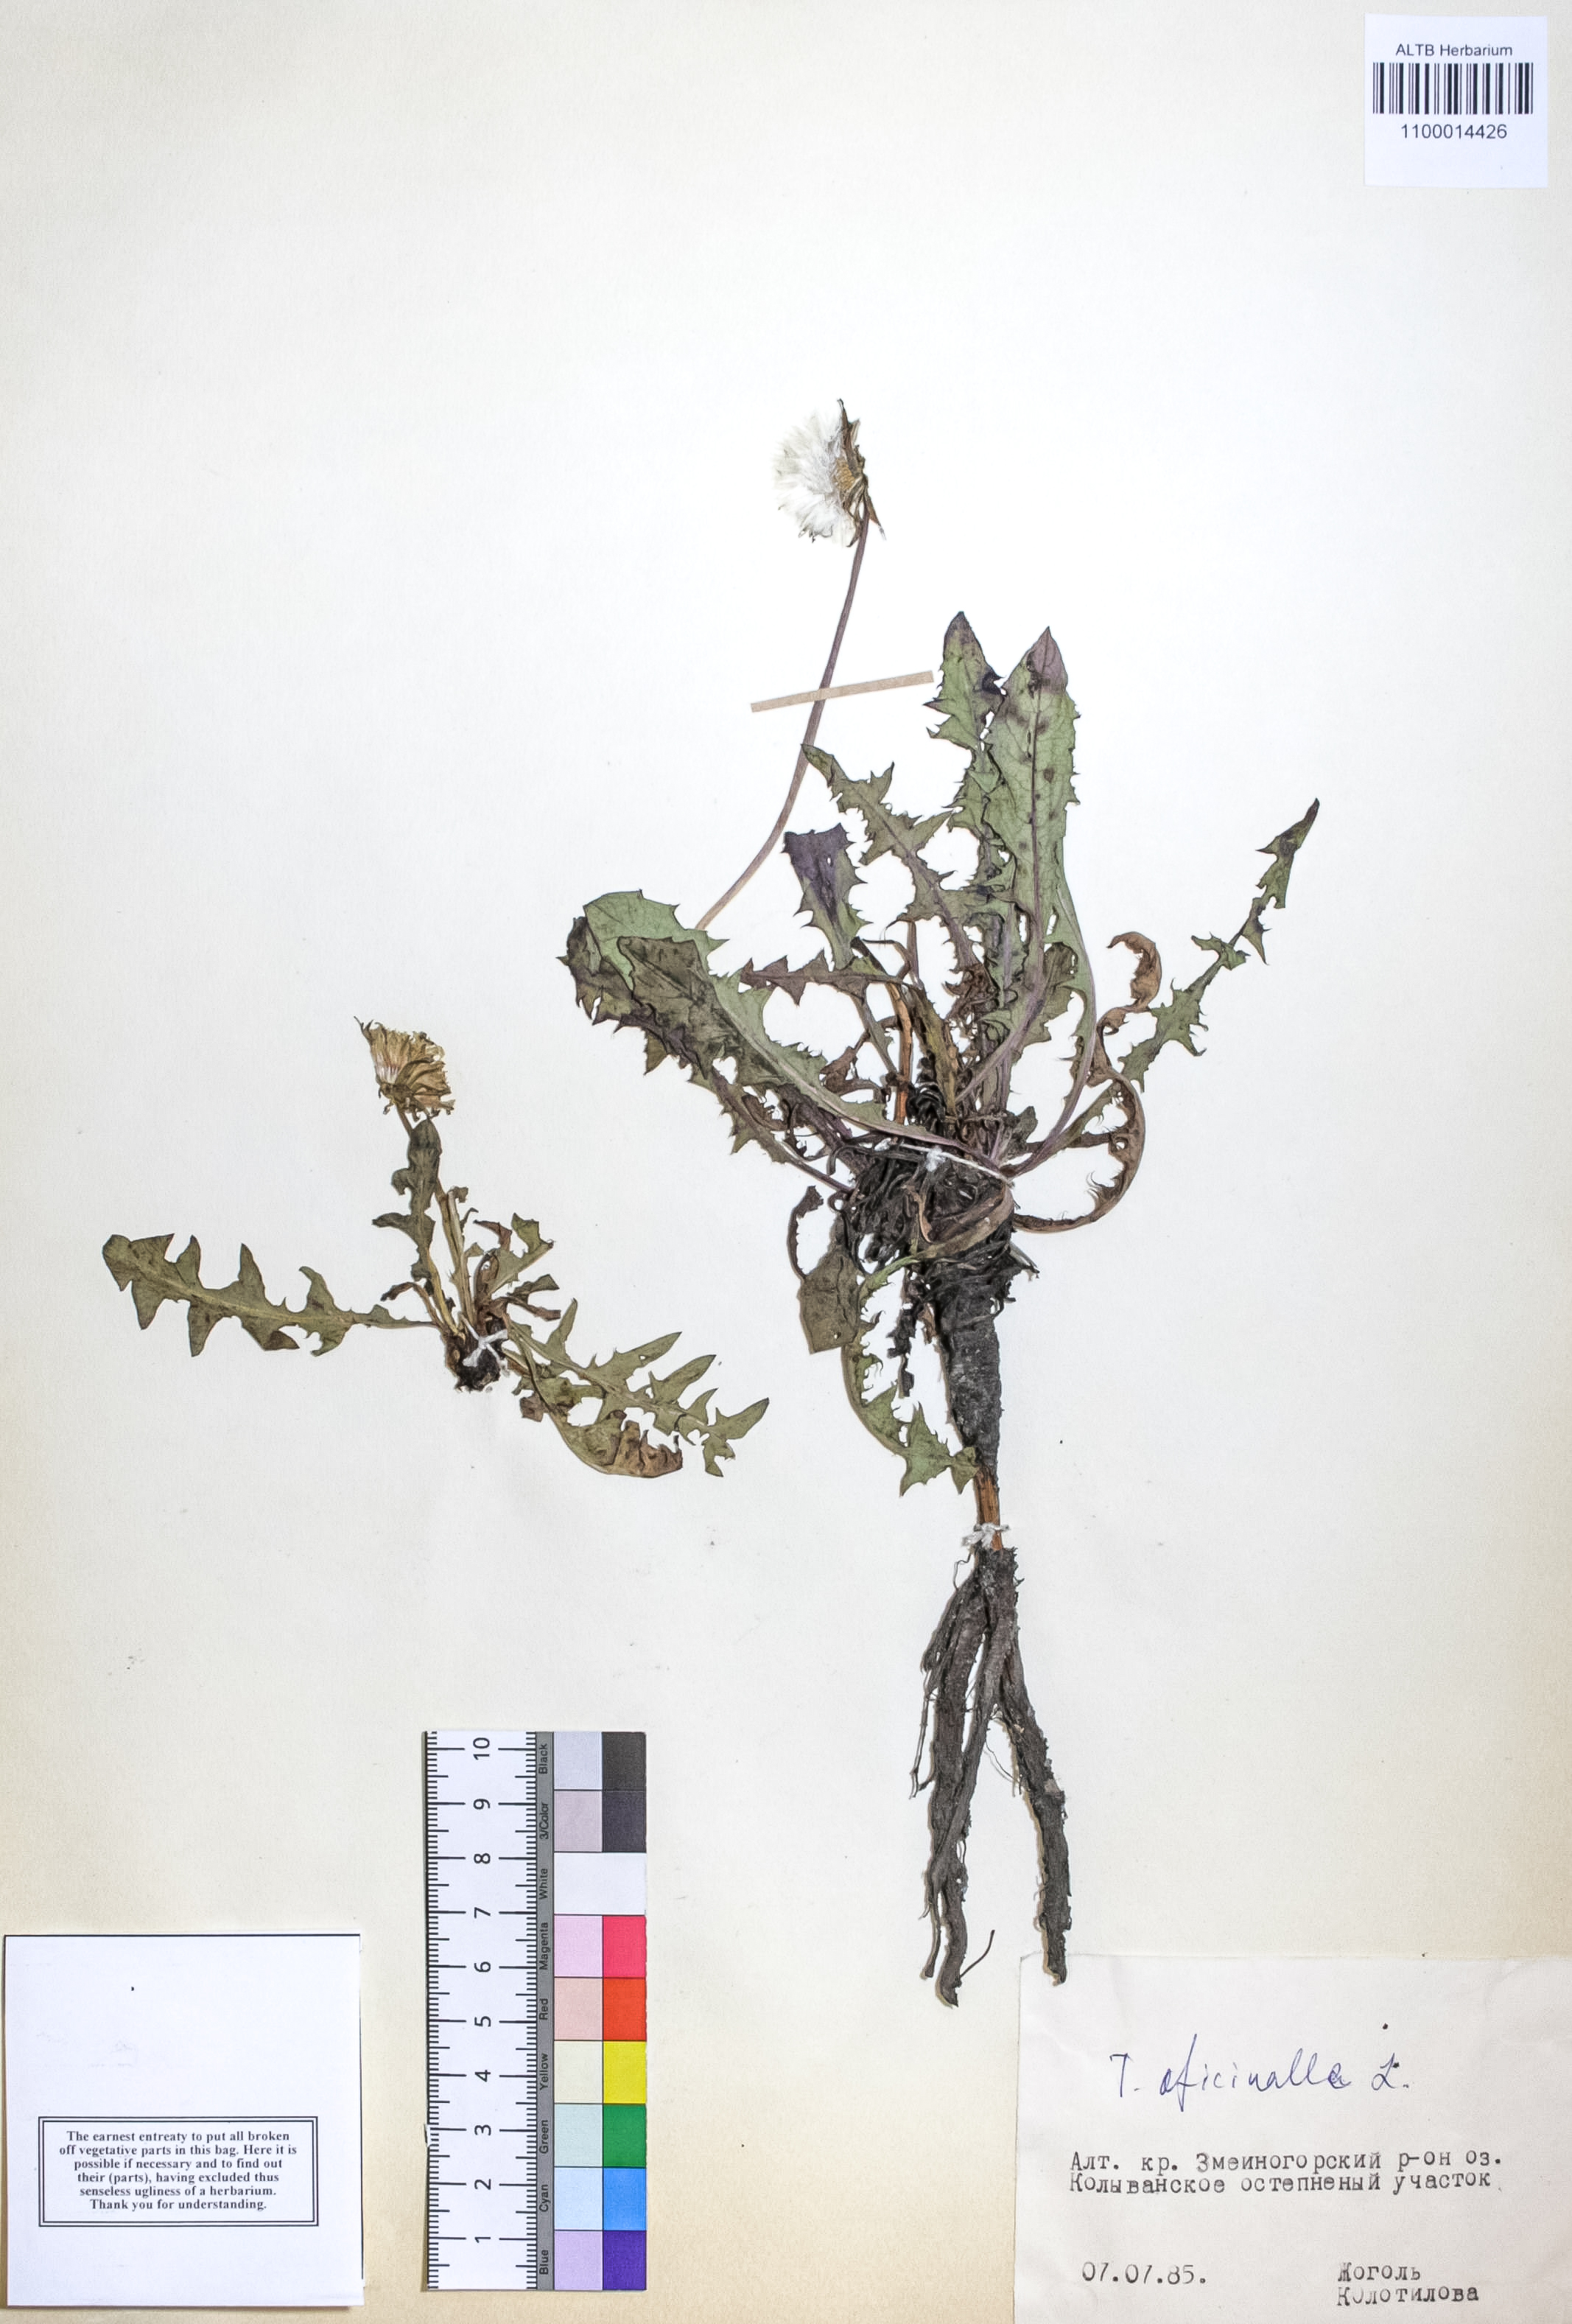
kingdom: Plantae
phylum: Tracheophyta
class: Magnoliopsida
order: Asterales
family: Asteraceae
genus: Taraxacum
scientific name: Taraxacum officinale
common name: Common dandelion
